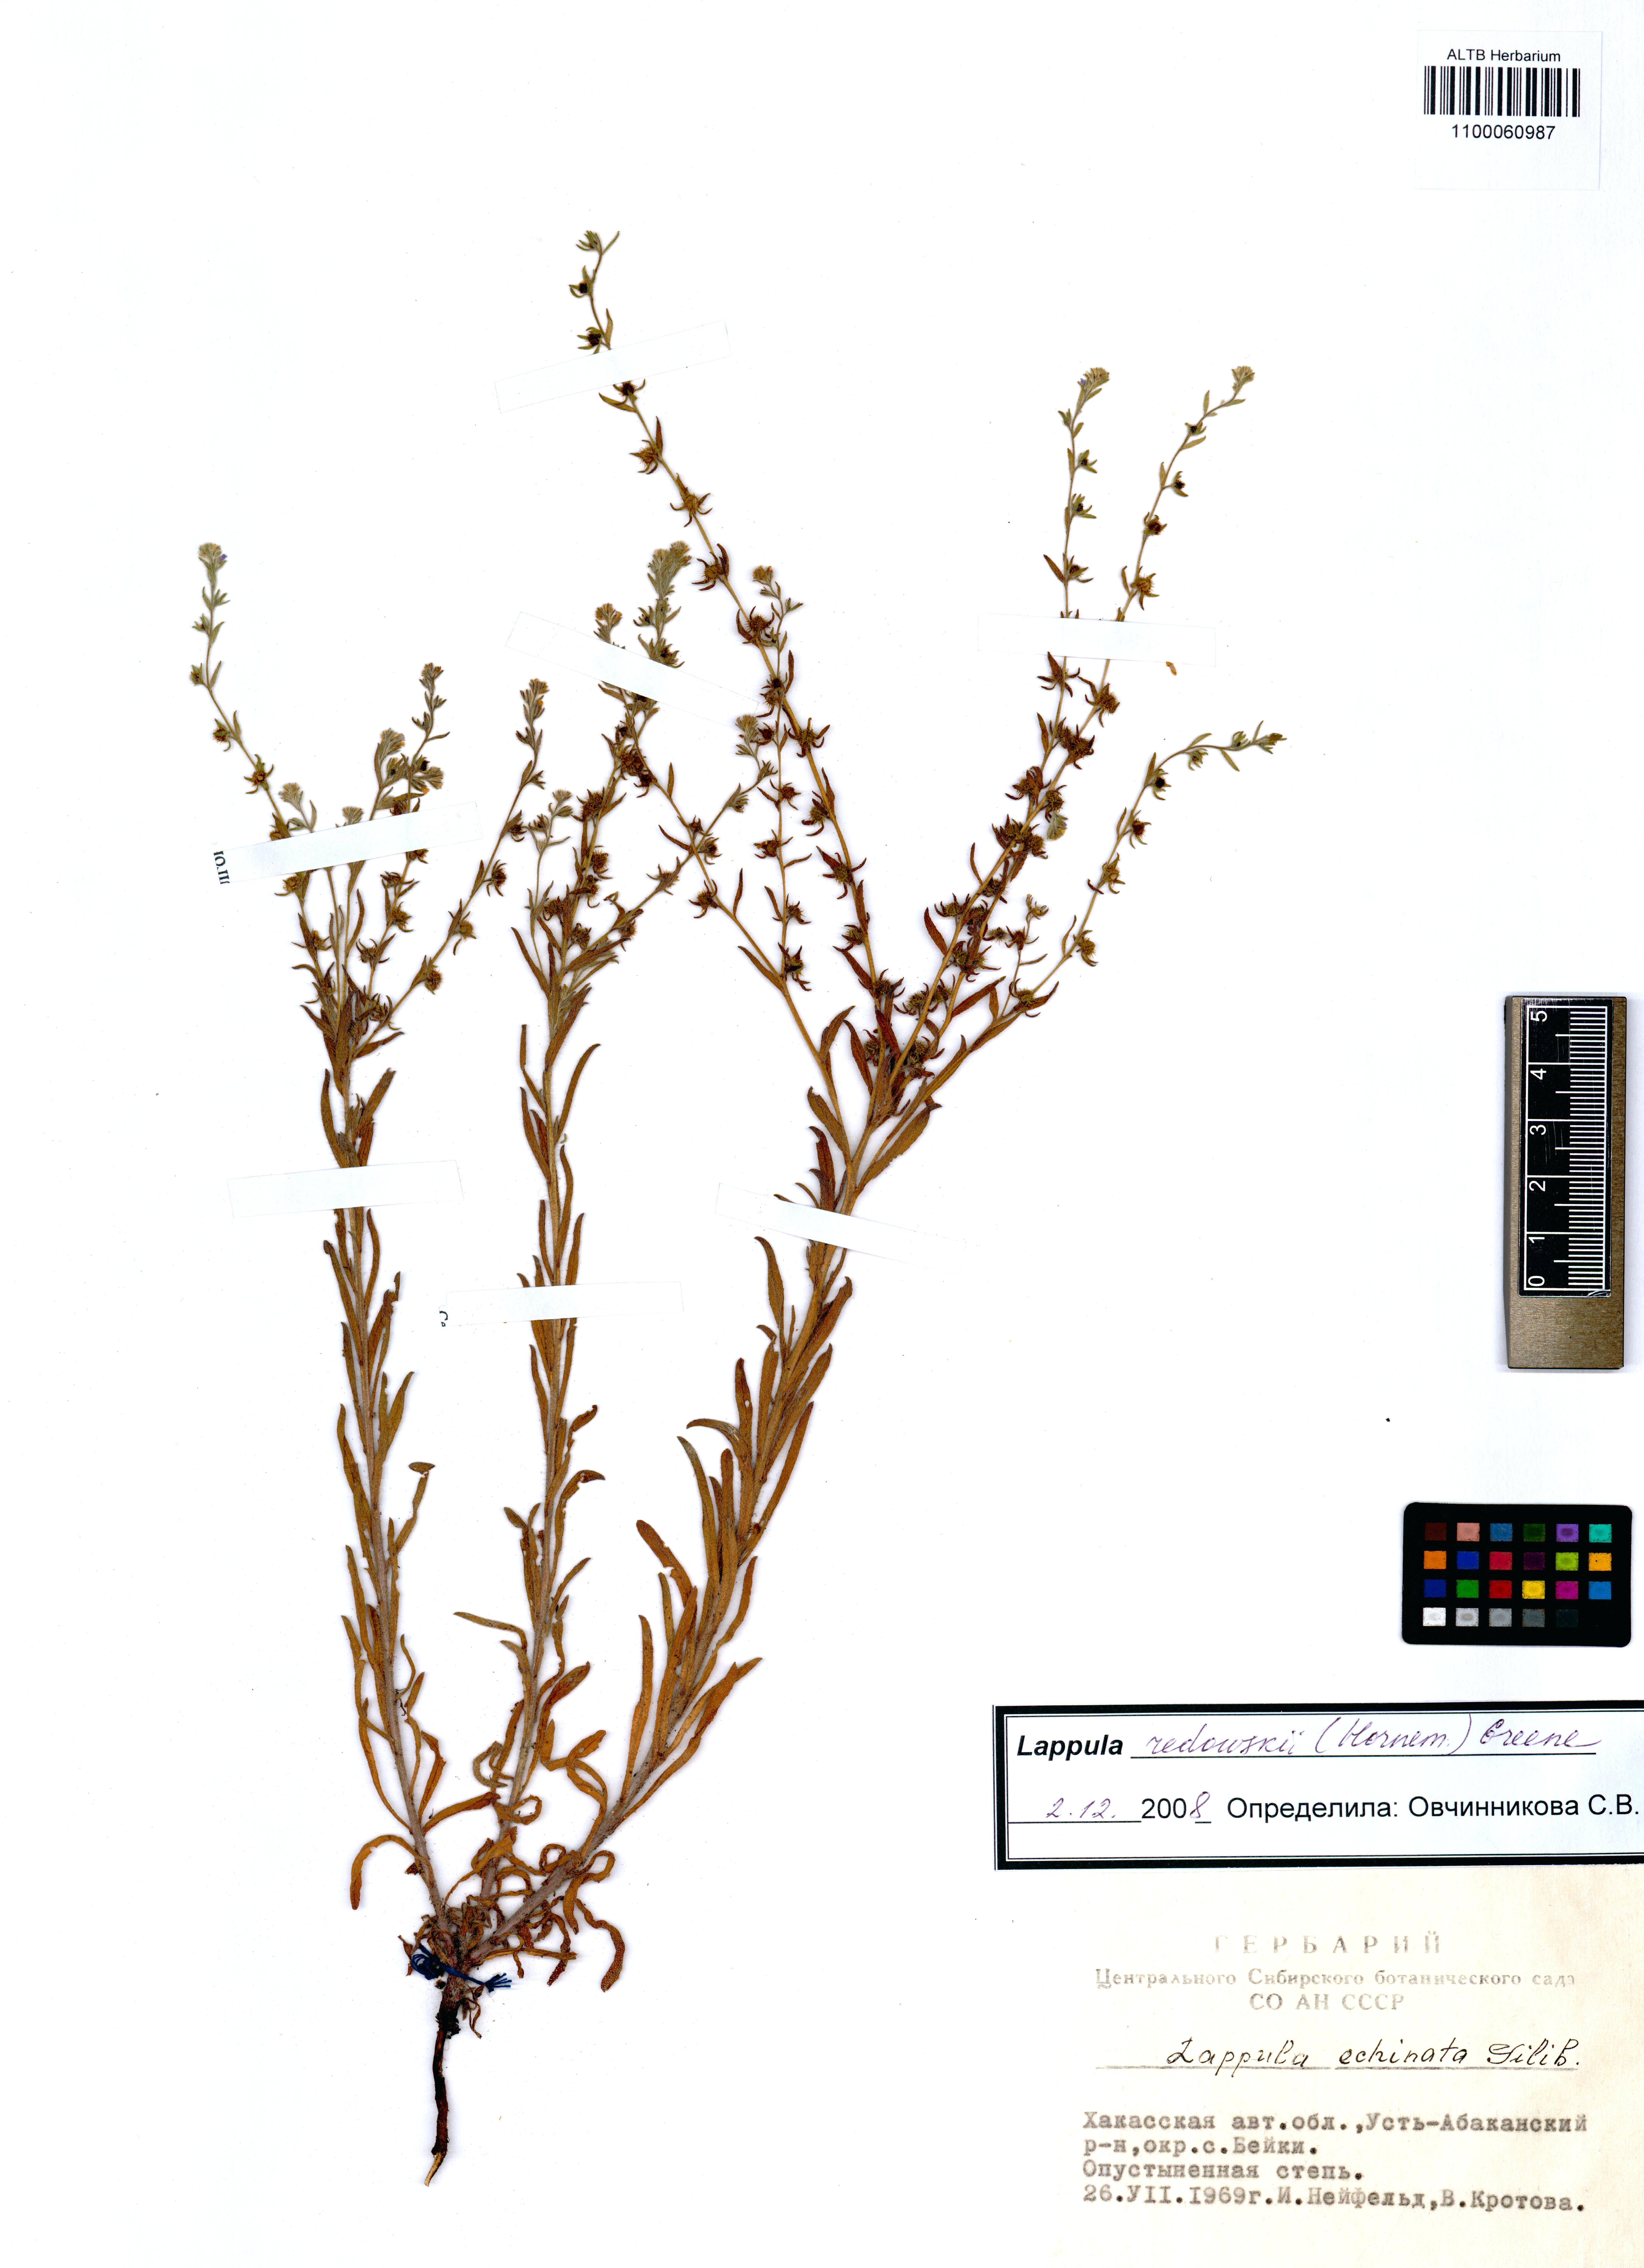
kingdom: Plantae
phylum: Tracheophyta
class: Magnoliopsida
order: Boraginales
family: Boraginaceae
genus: Lappula
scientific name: Lappula redowskii
